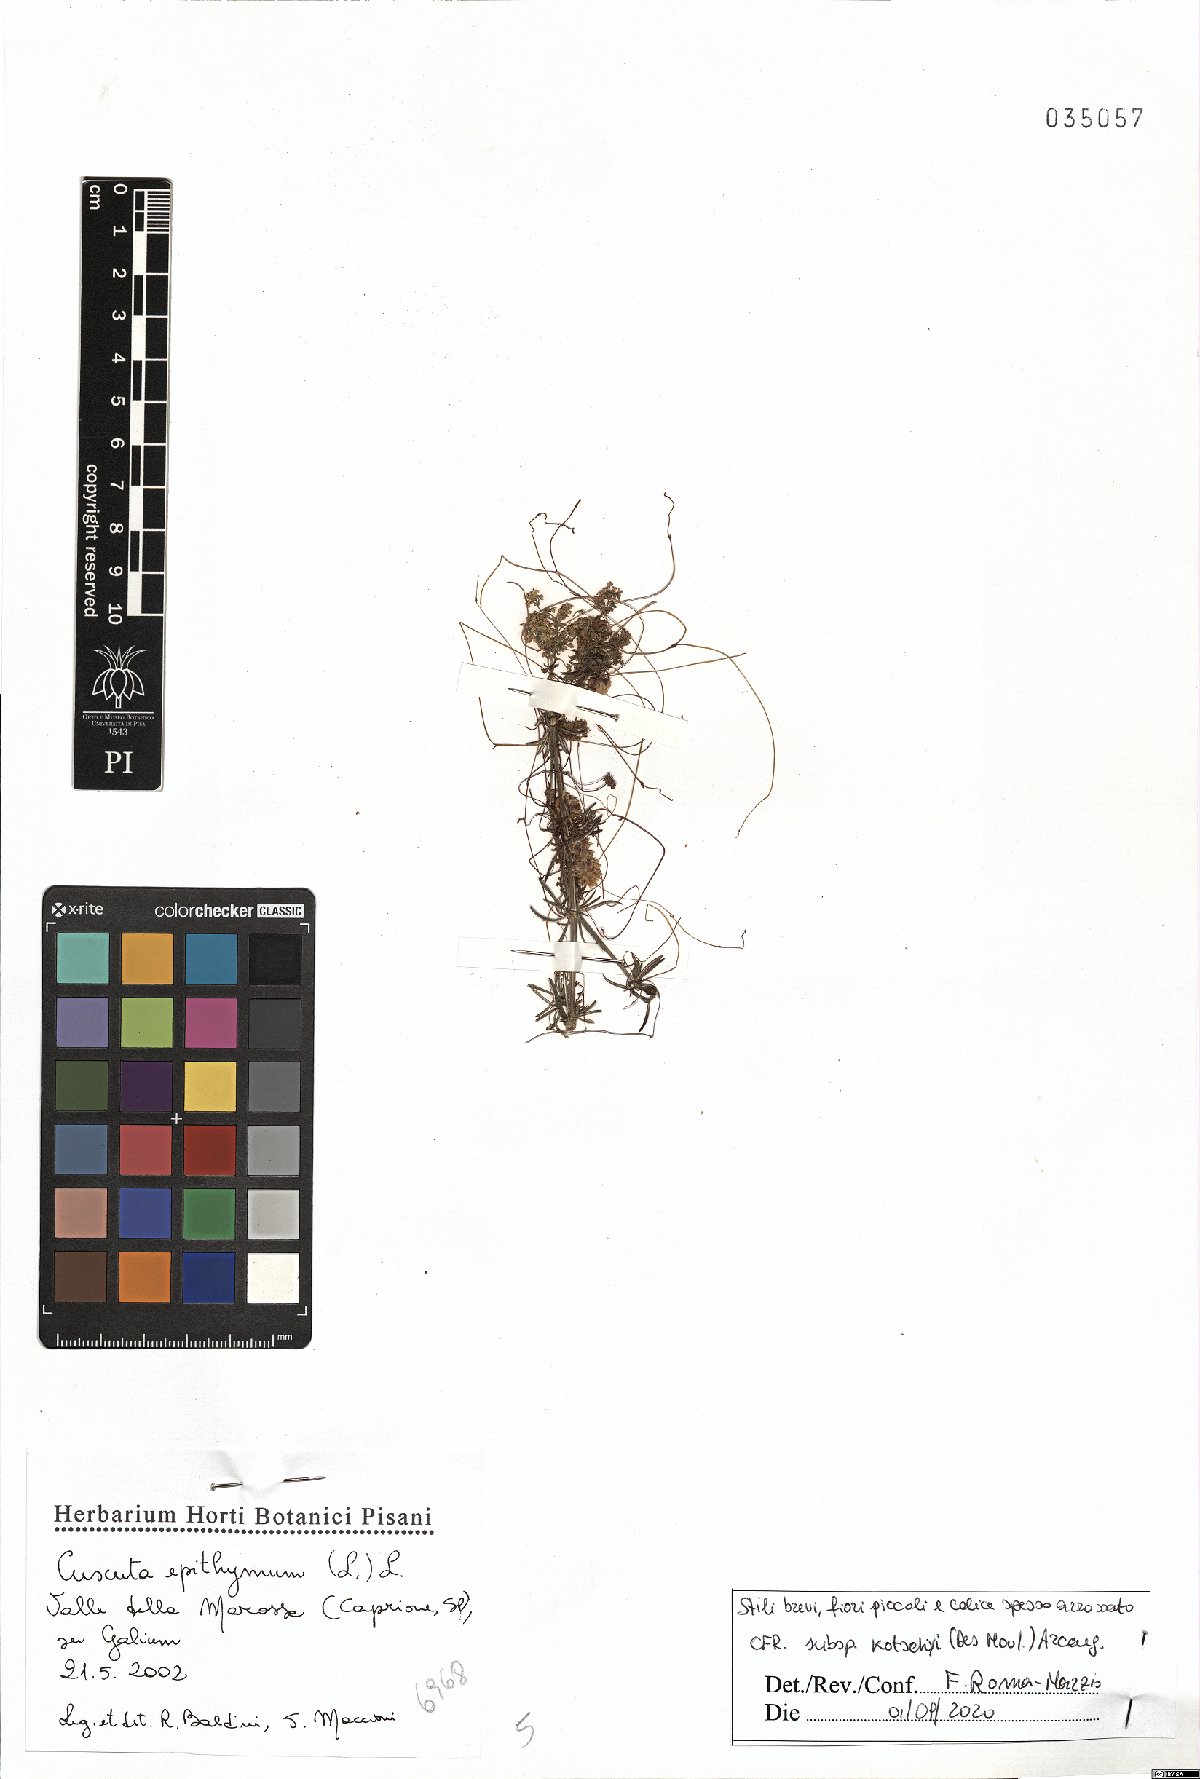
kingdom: Plantae
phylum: Tracheophyta
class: Magnoliopsida
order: Solanales
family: Convolvulaceae
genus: Cuscuta
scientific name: Cuscuta epithymum
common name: Clover dodder
